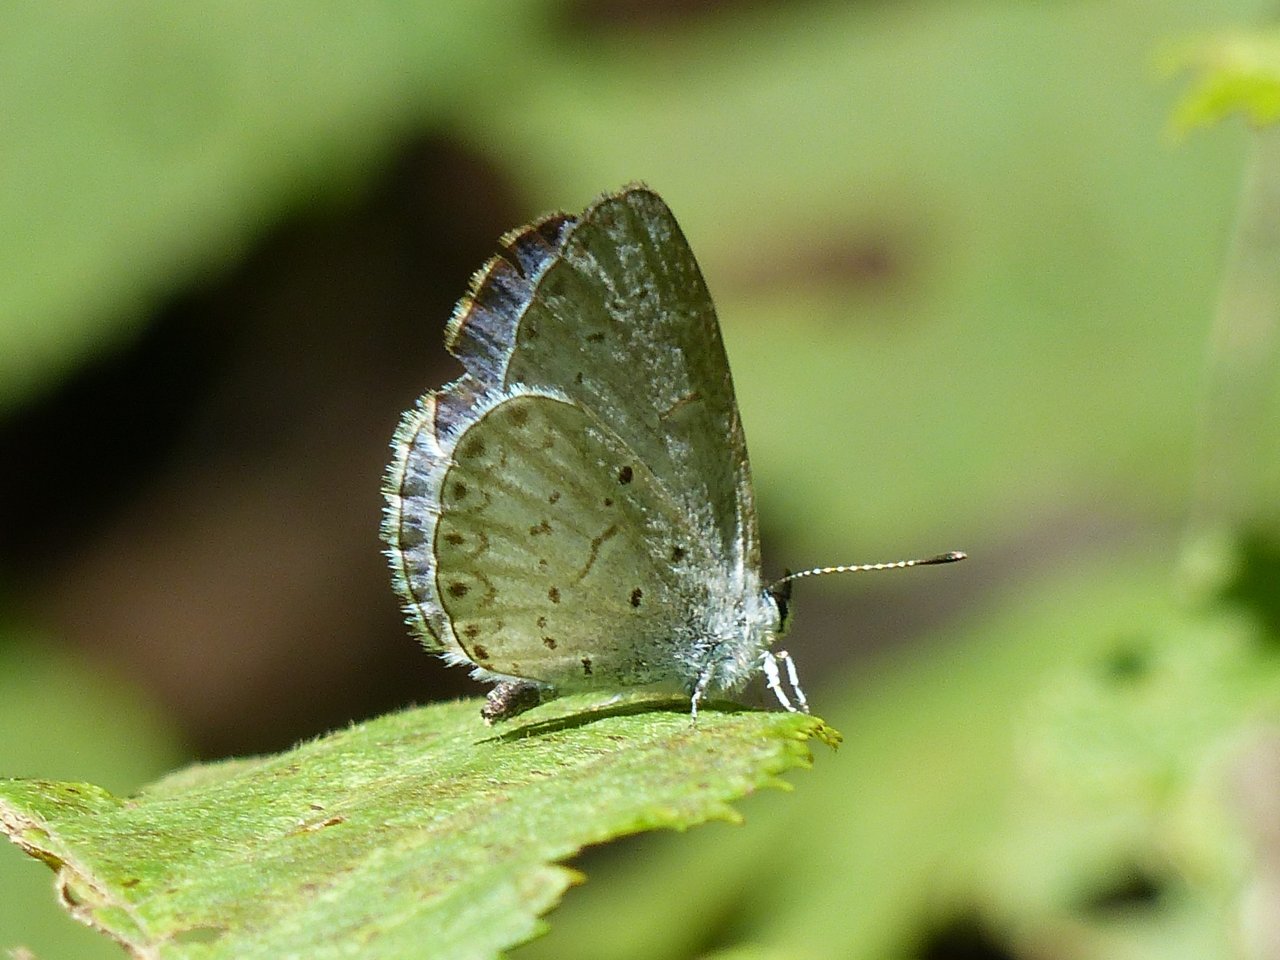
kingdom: Animalia
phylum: Arthropoda
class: Insecta
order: Lepidoptera
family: Lycaenidae
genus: Celastrina
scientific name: Celastrina lucia
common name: Northern Spring Azure
